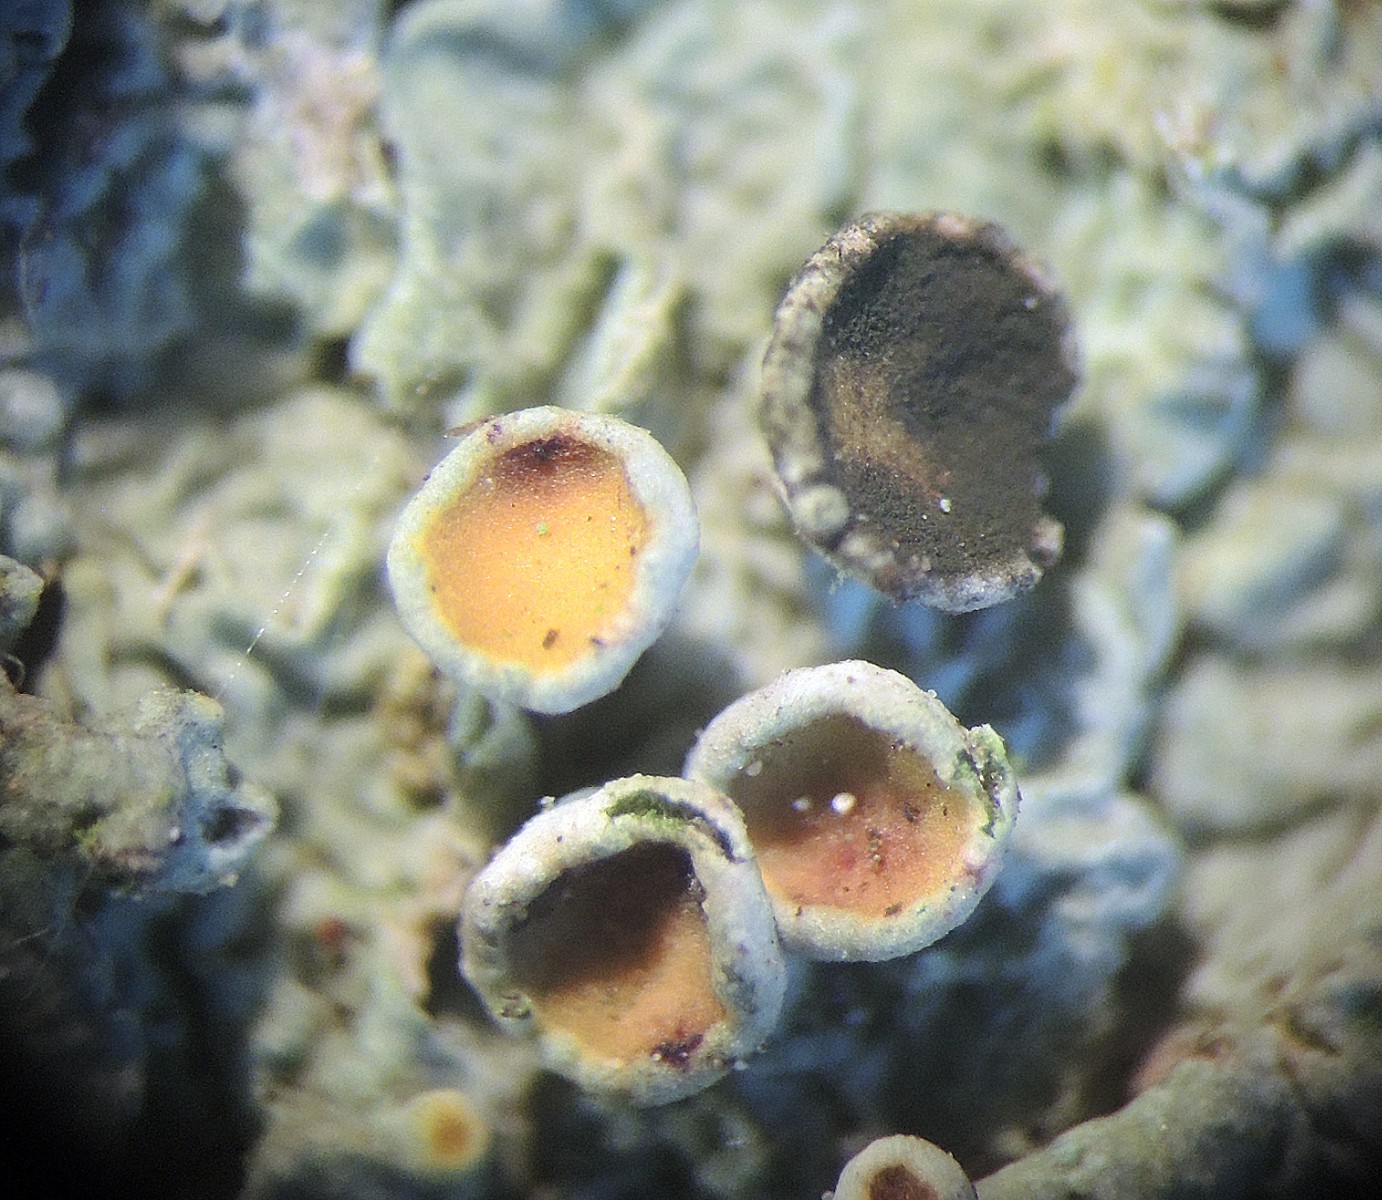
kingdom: Fungi
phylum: Ascomycota
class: Dothideomycetes
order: Mycosphaerellales
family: Teratosphaeriaceae
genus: Xanthoriicola
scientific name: Xanthoriicola physciae
